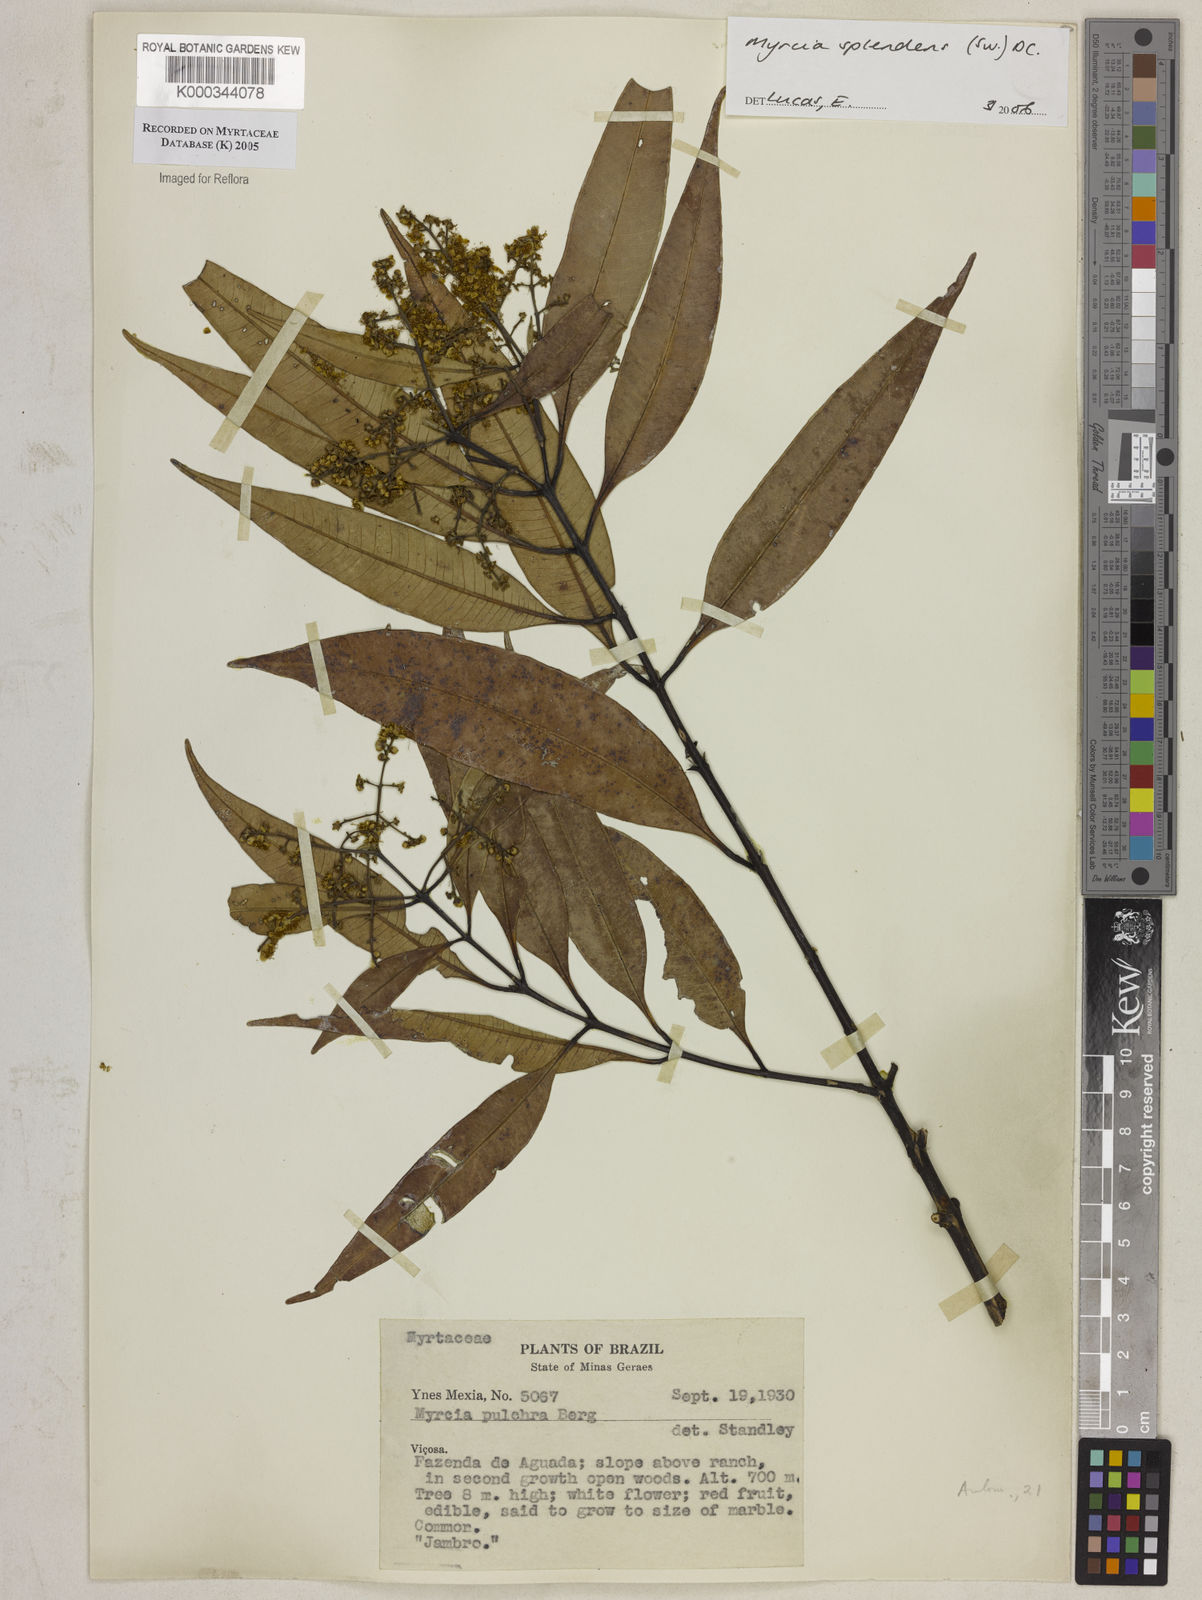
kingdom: Plantae
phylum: Tracheophyta
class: Magnoliopsida
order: Myrtales
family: Myrtaceae
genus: Myrcia
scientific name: Myrcia splendens
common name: Surinam cherry
